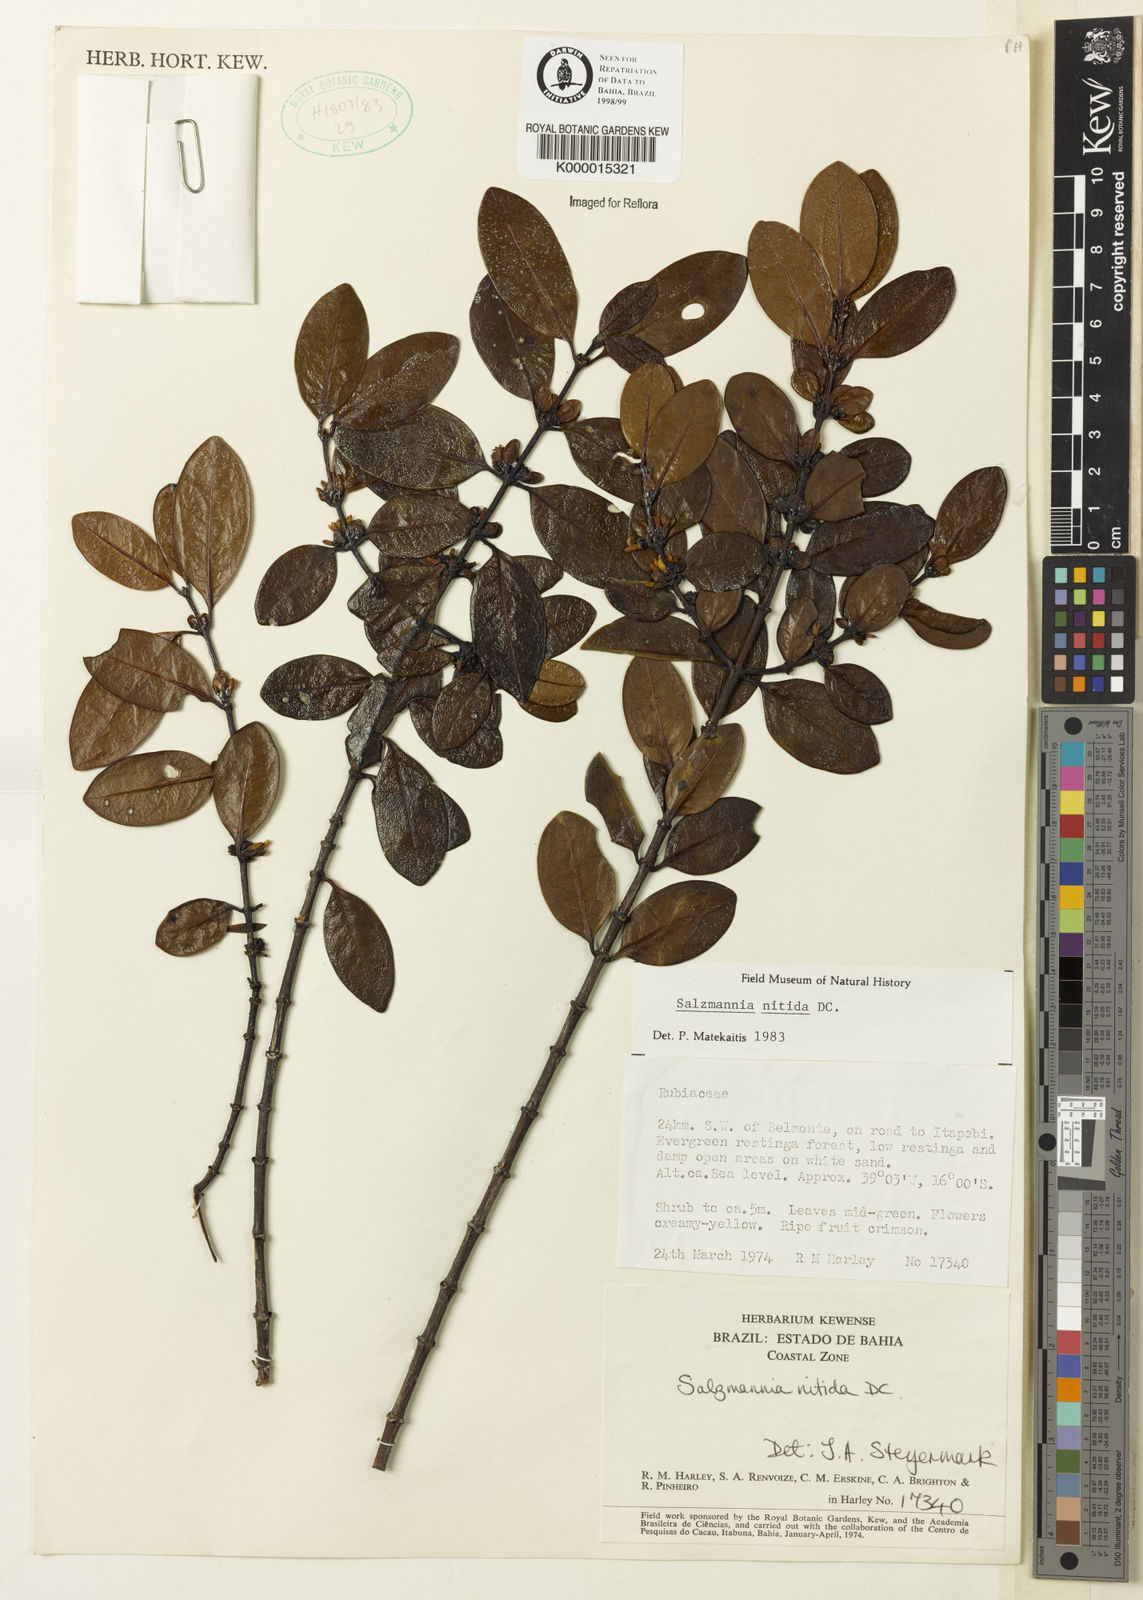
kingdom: Plantae
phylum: Tracheophyta
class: Magnoliopsida
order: Gentianales
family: Rubiaceae
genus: Salzmannia
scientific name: Salzmannia nitida
